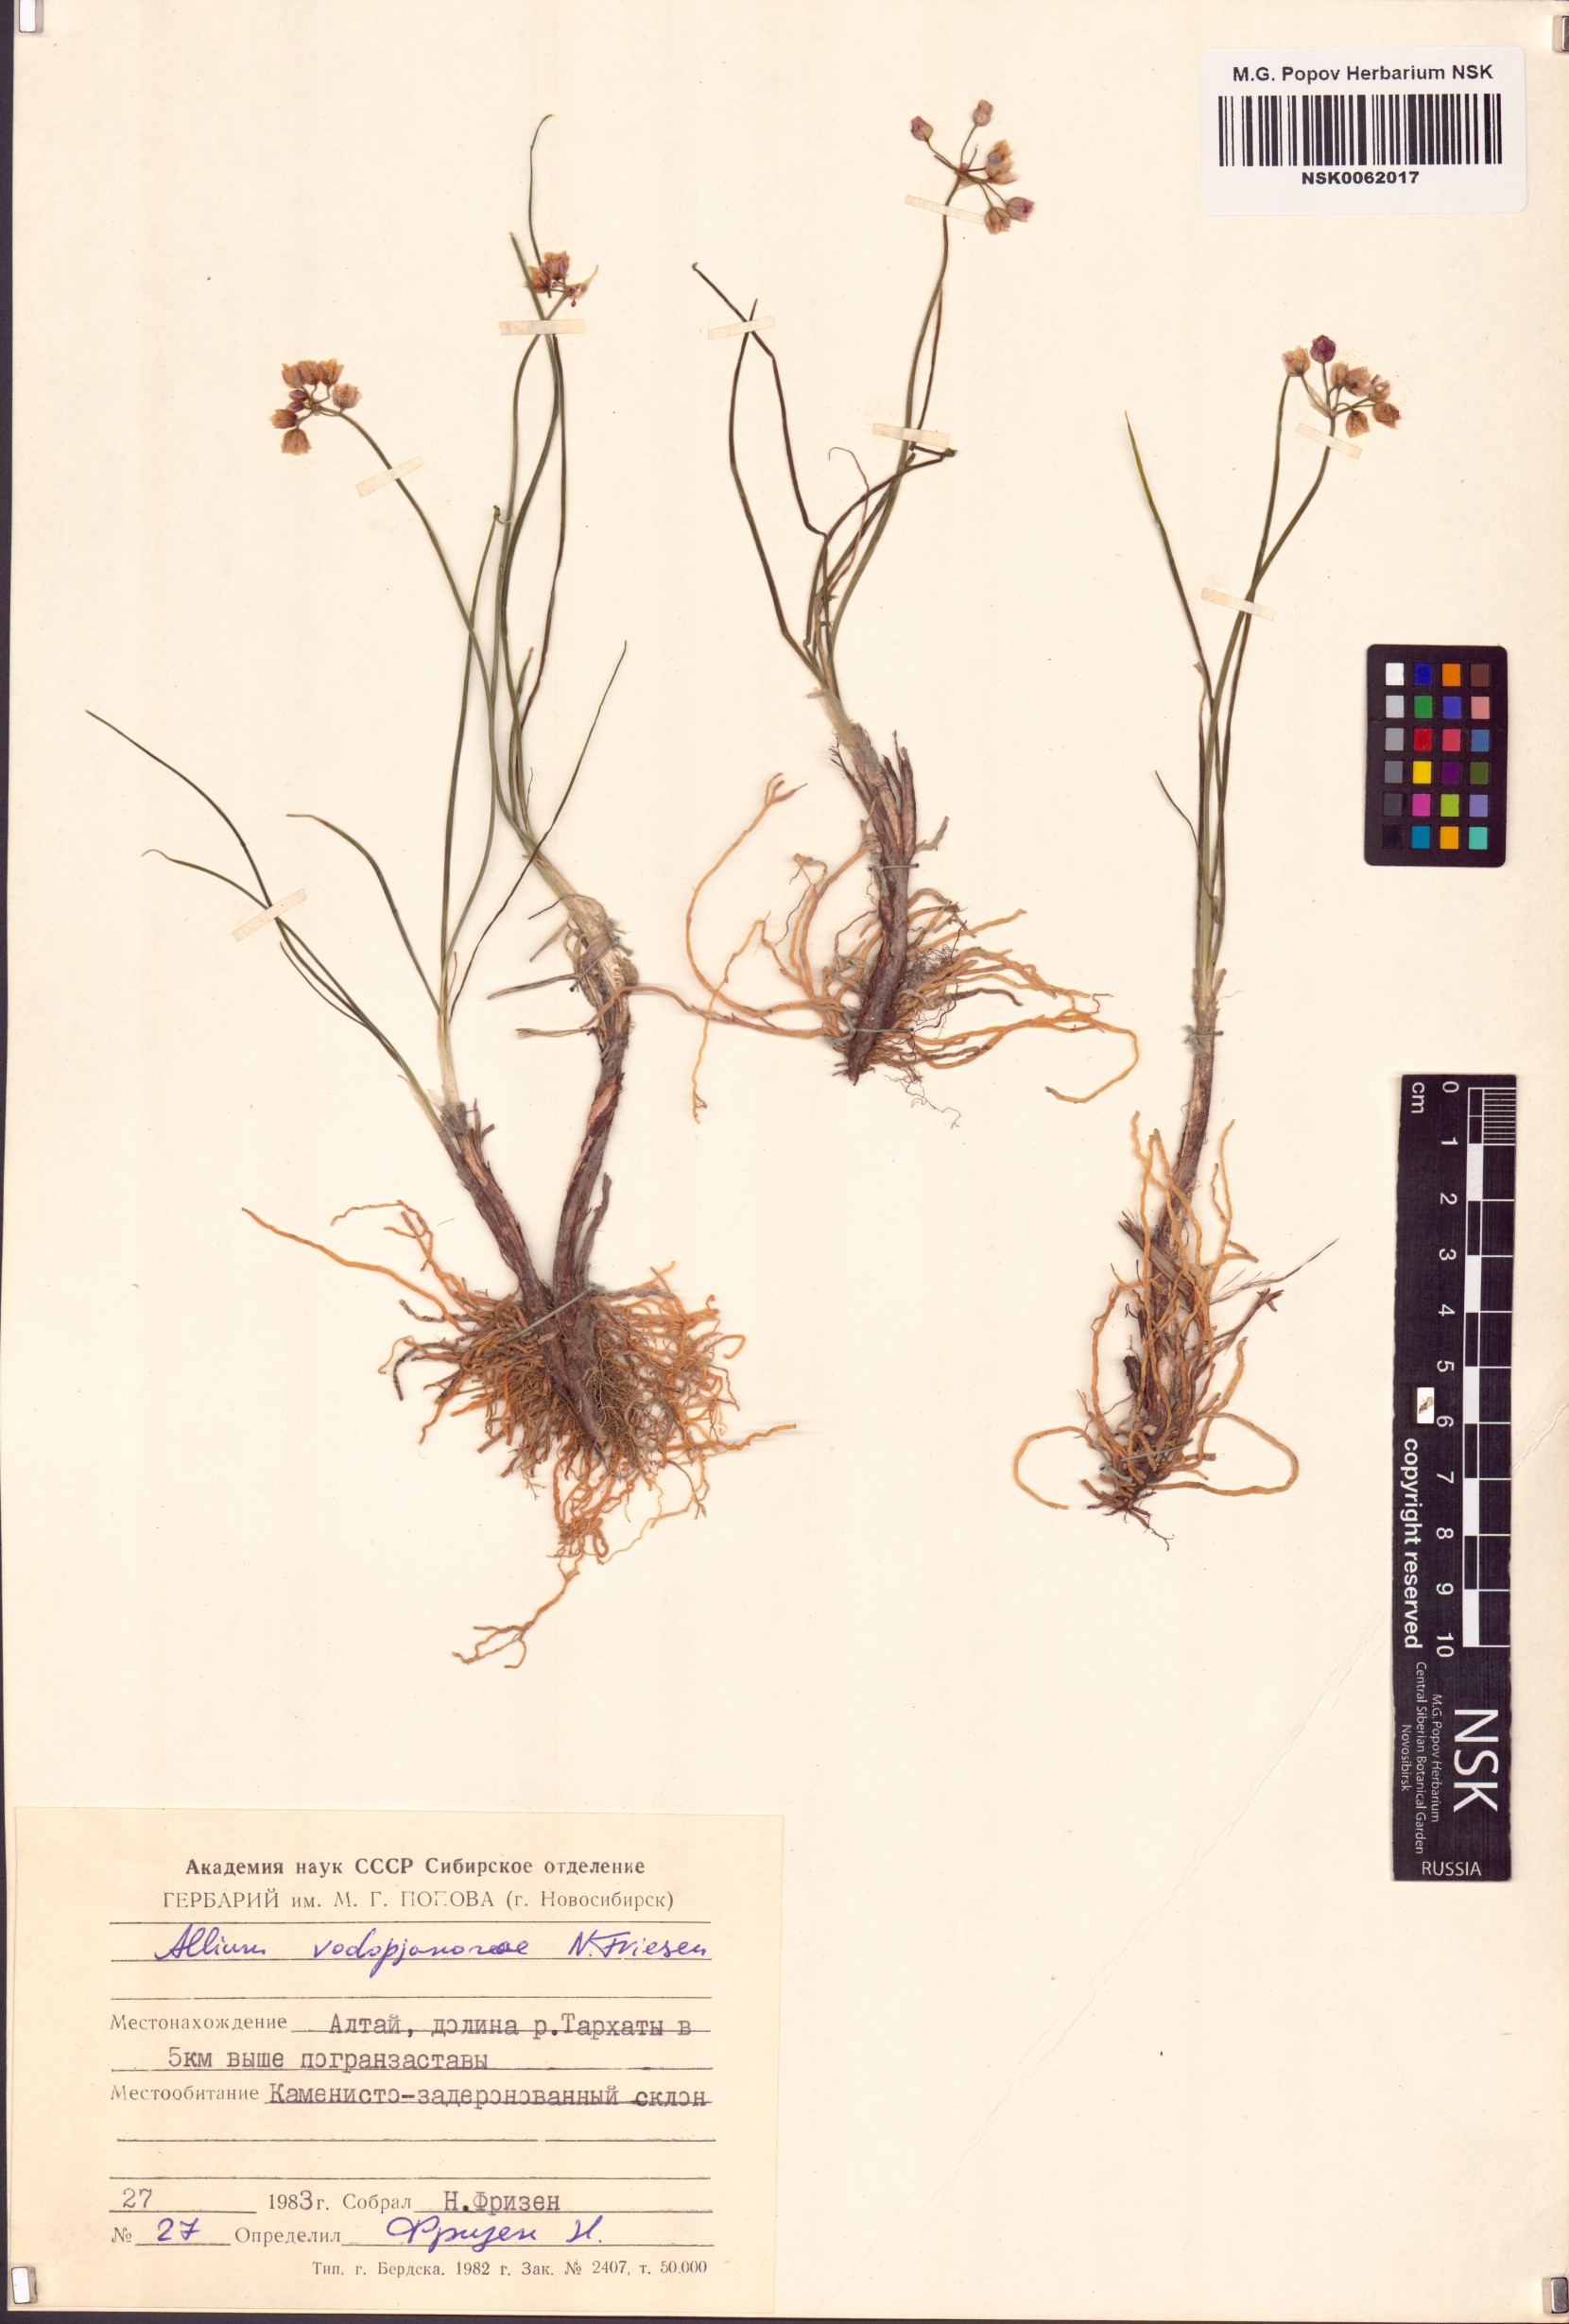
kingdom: Plantae
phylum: Tracheophyta
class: Liliopsida
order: Asparagales
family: Amaryllidaceae
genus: Allium
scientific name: Allium vodopjanovae
